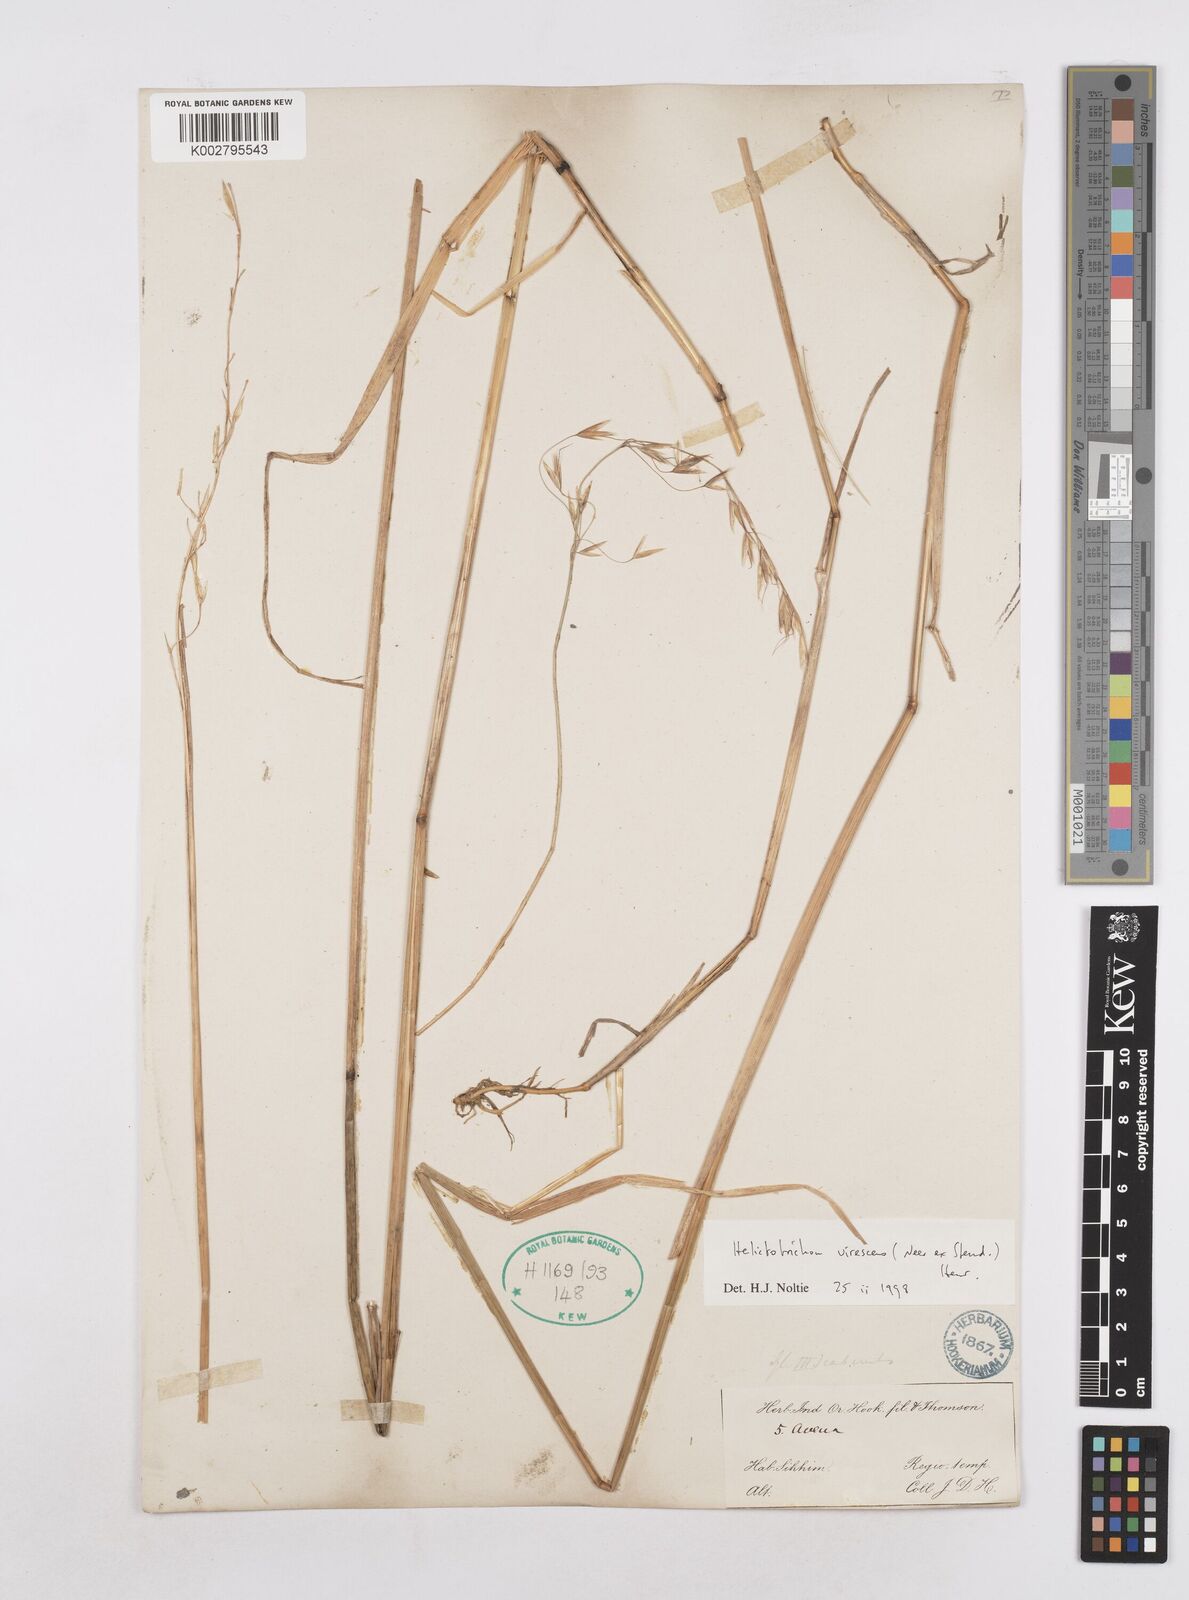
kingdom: Plantae
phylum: Tracheophyta
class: Liliopsida
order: Poales
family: Poaceae
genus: Trisetopsis
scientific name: Trisetopsis junghuhnii
